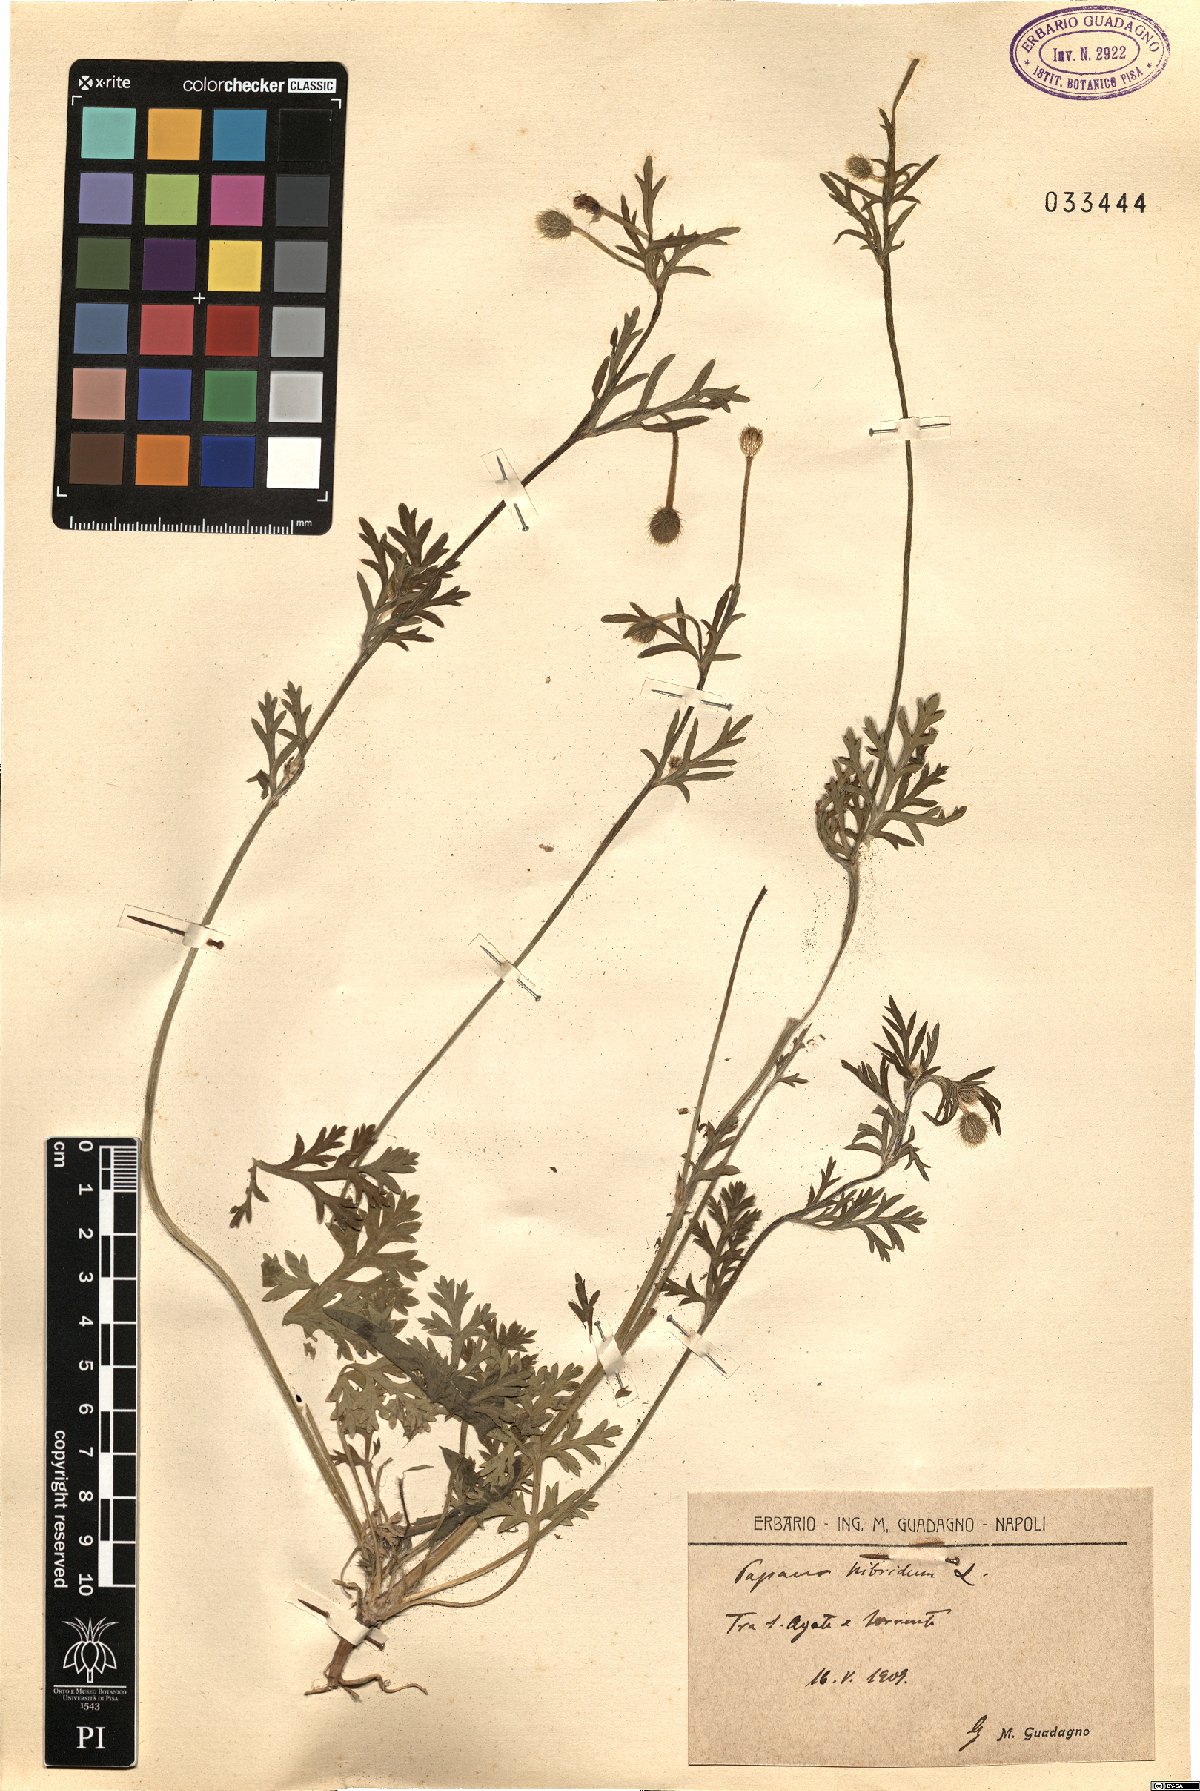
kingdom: Plantae
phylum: Tracheophyta
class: Magnoliopsida
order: Ranunculales
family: Papaveraceae
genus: Roemeria
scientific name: Roemeria hispida
